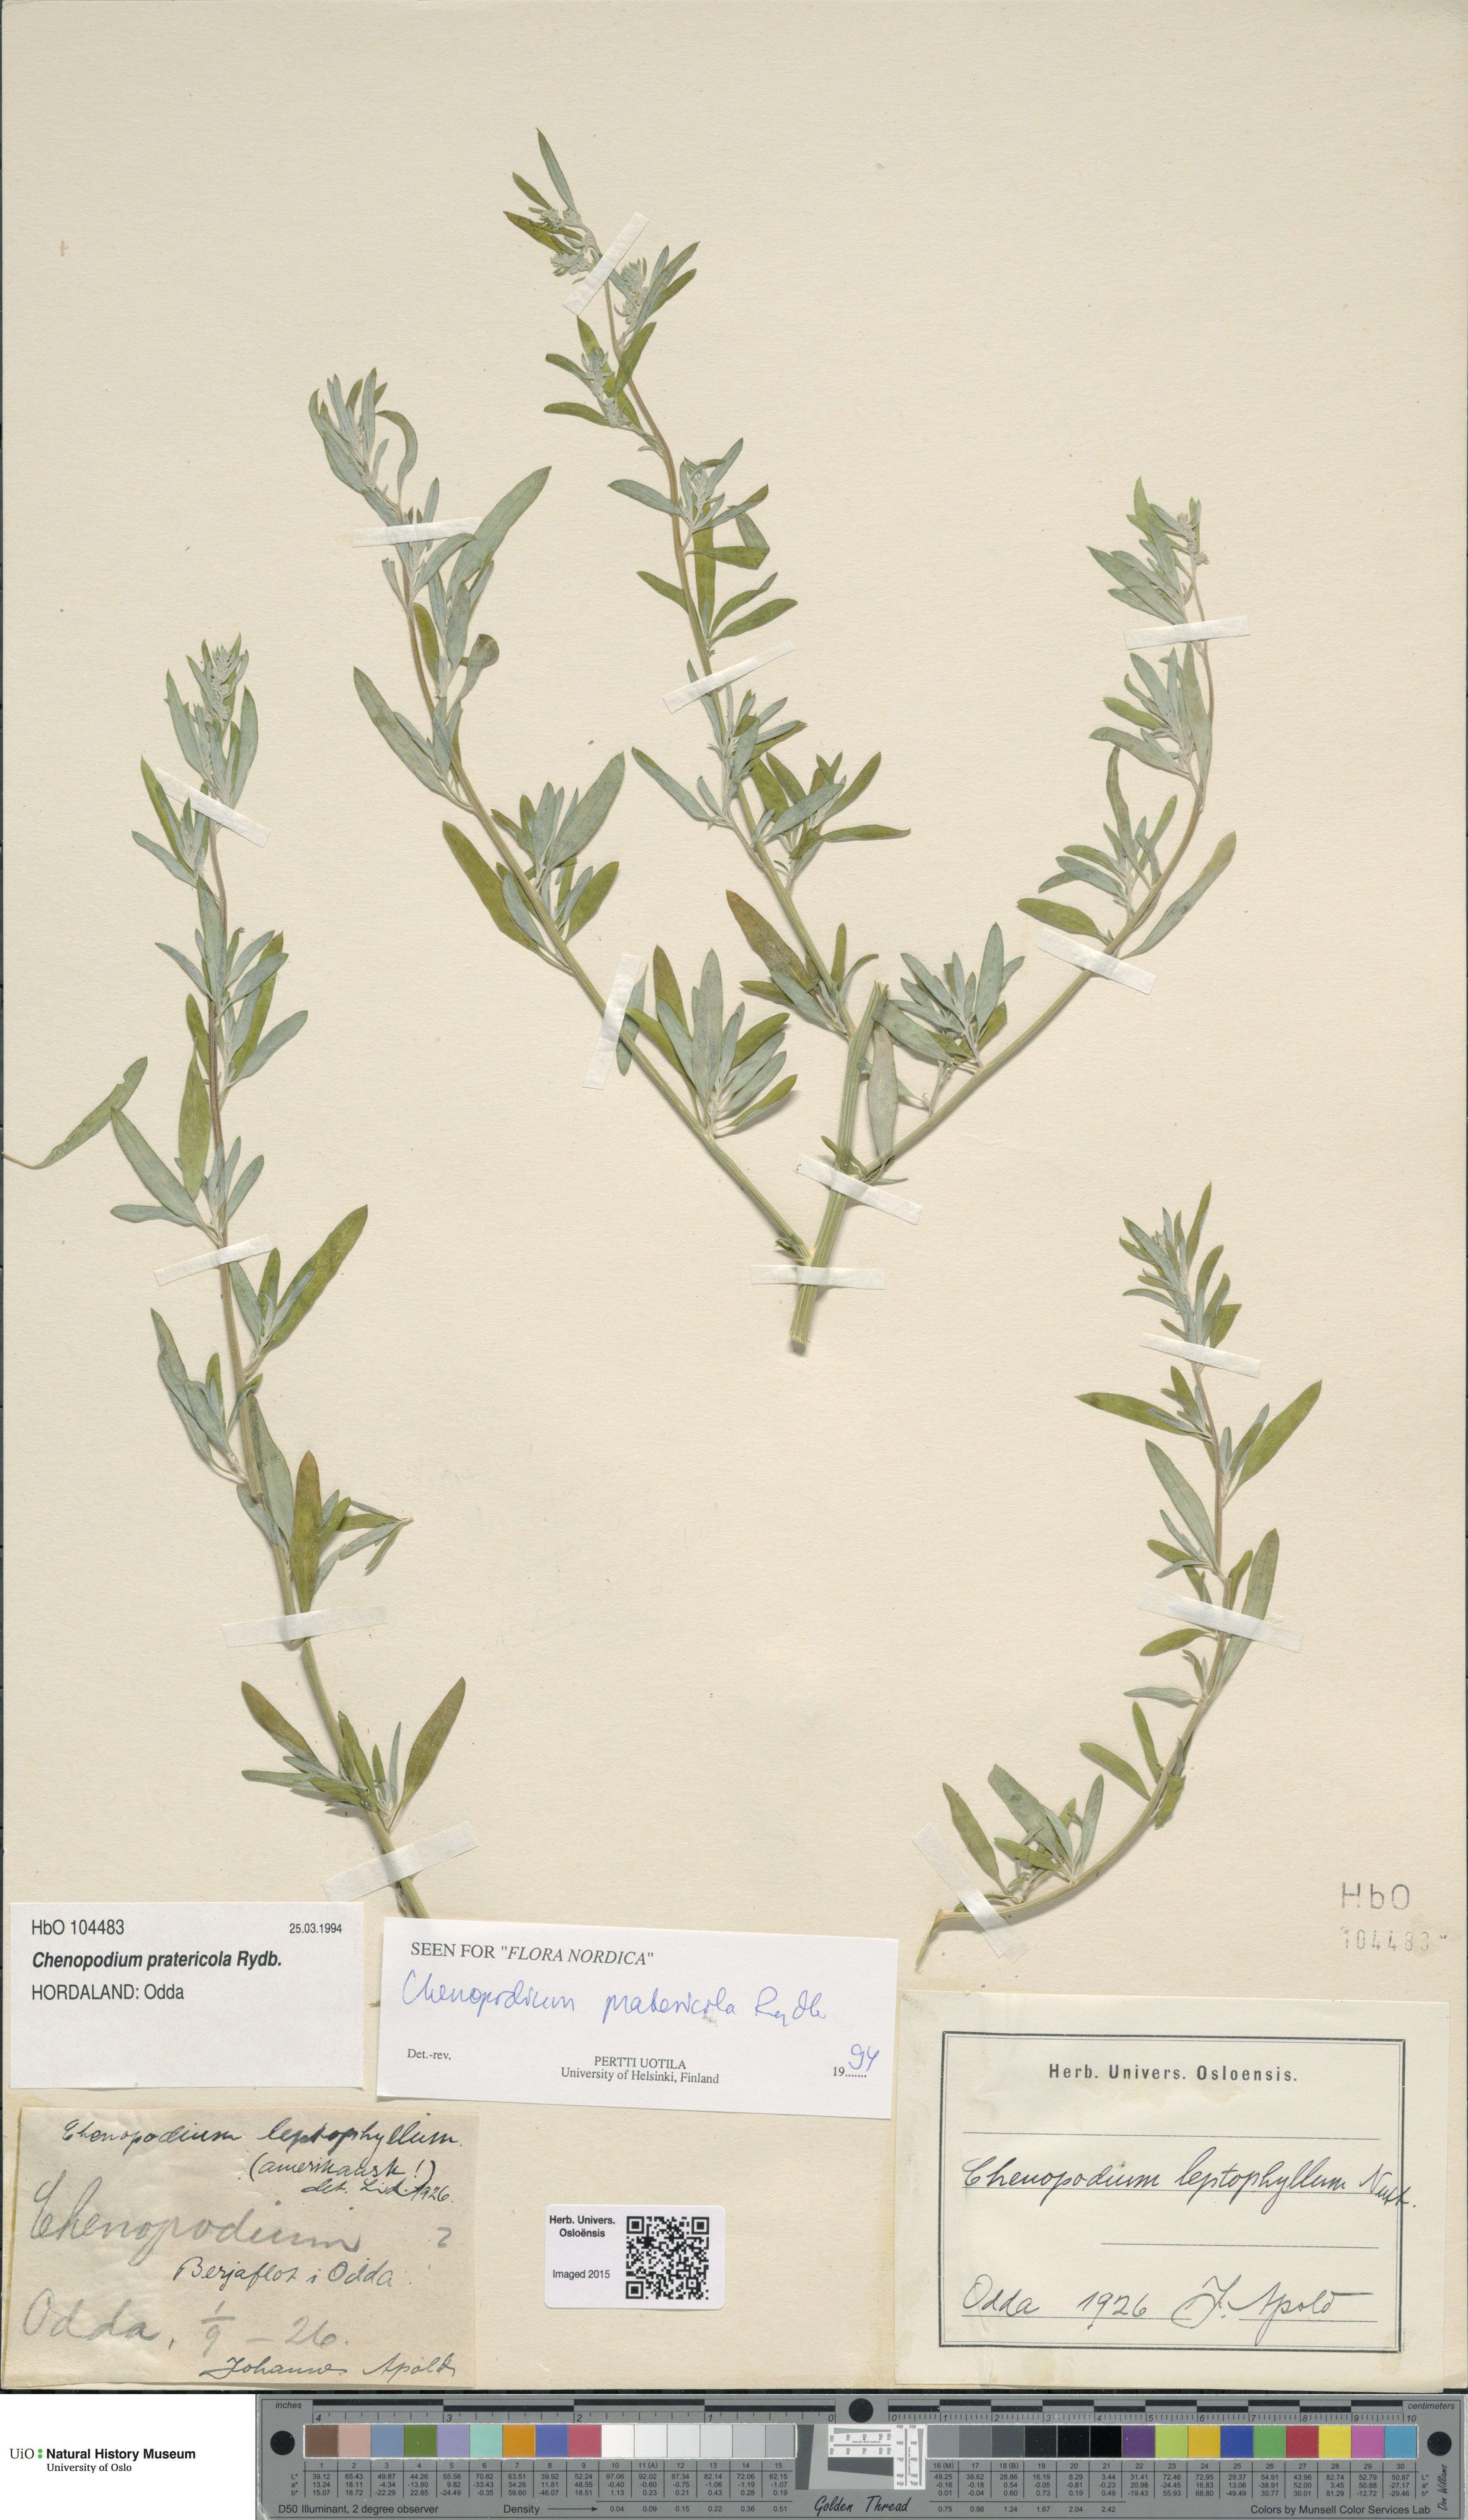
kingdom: Plantae
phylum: Tracheophyta
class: Magnoliopsida
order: Caryophyllales
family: Amaranthaceae
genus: Chenopodium
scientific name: Chenopodium pratericola
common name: Desert goosefoot
